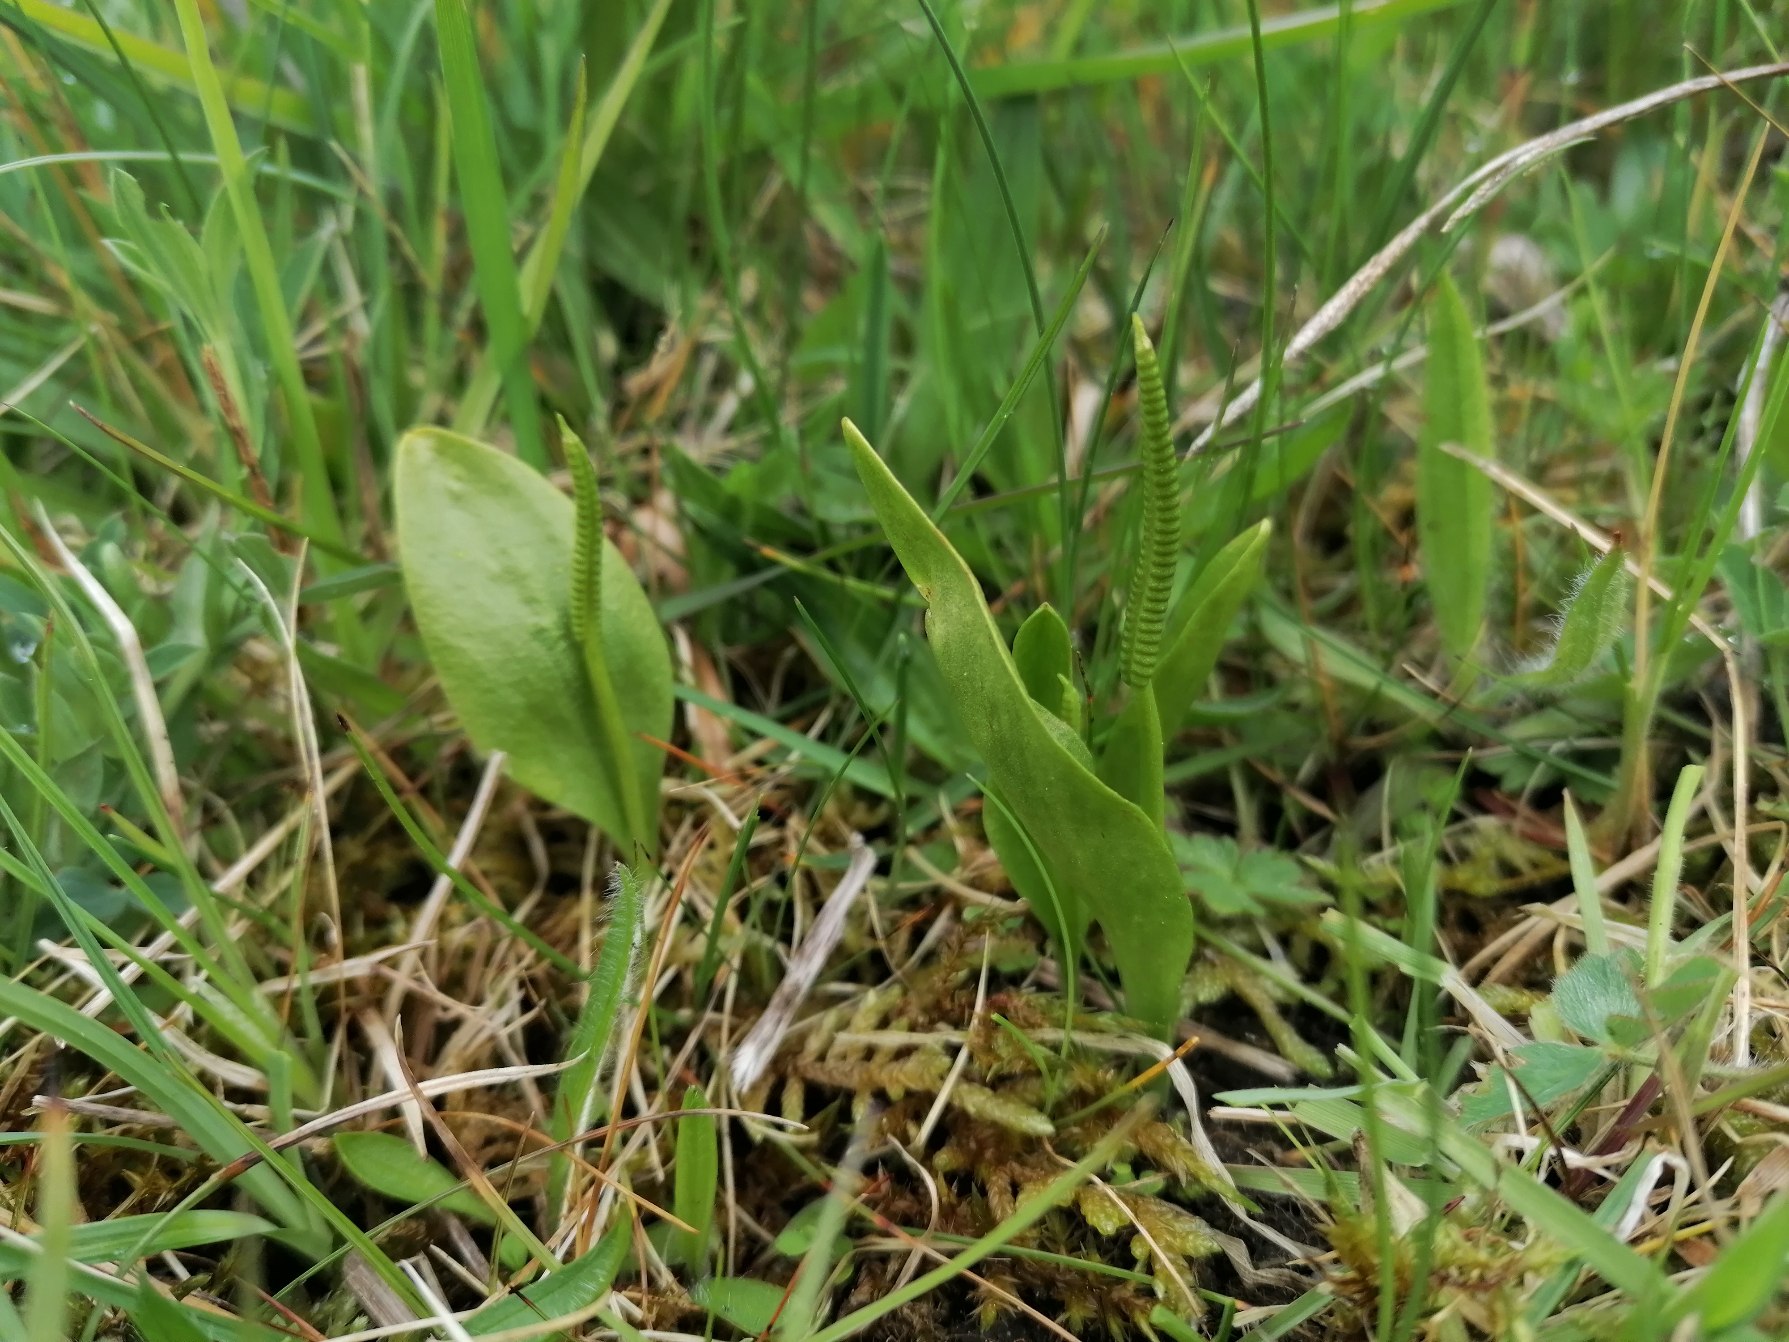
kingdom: Plantae
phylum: Tracheophyta
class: Polypodiopsida
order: Ophioglossales
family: Ophioglossaceae
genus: Ophioglossum
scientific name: Ophioglossum vulgatum
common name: Slangetunge
